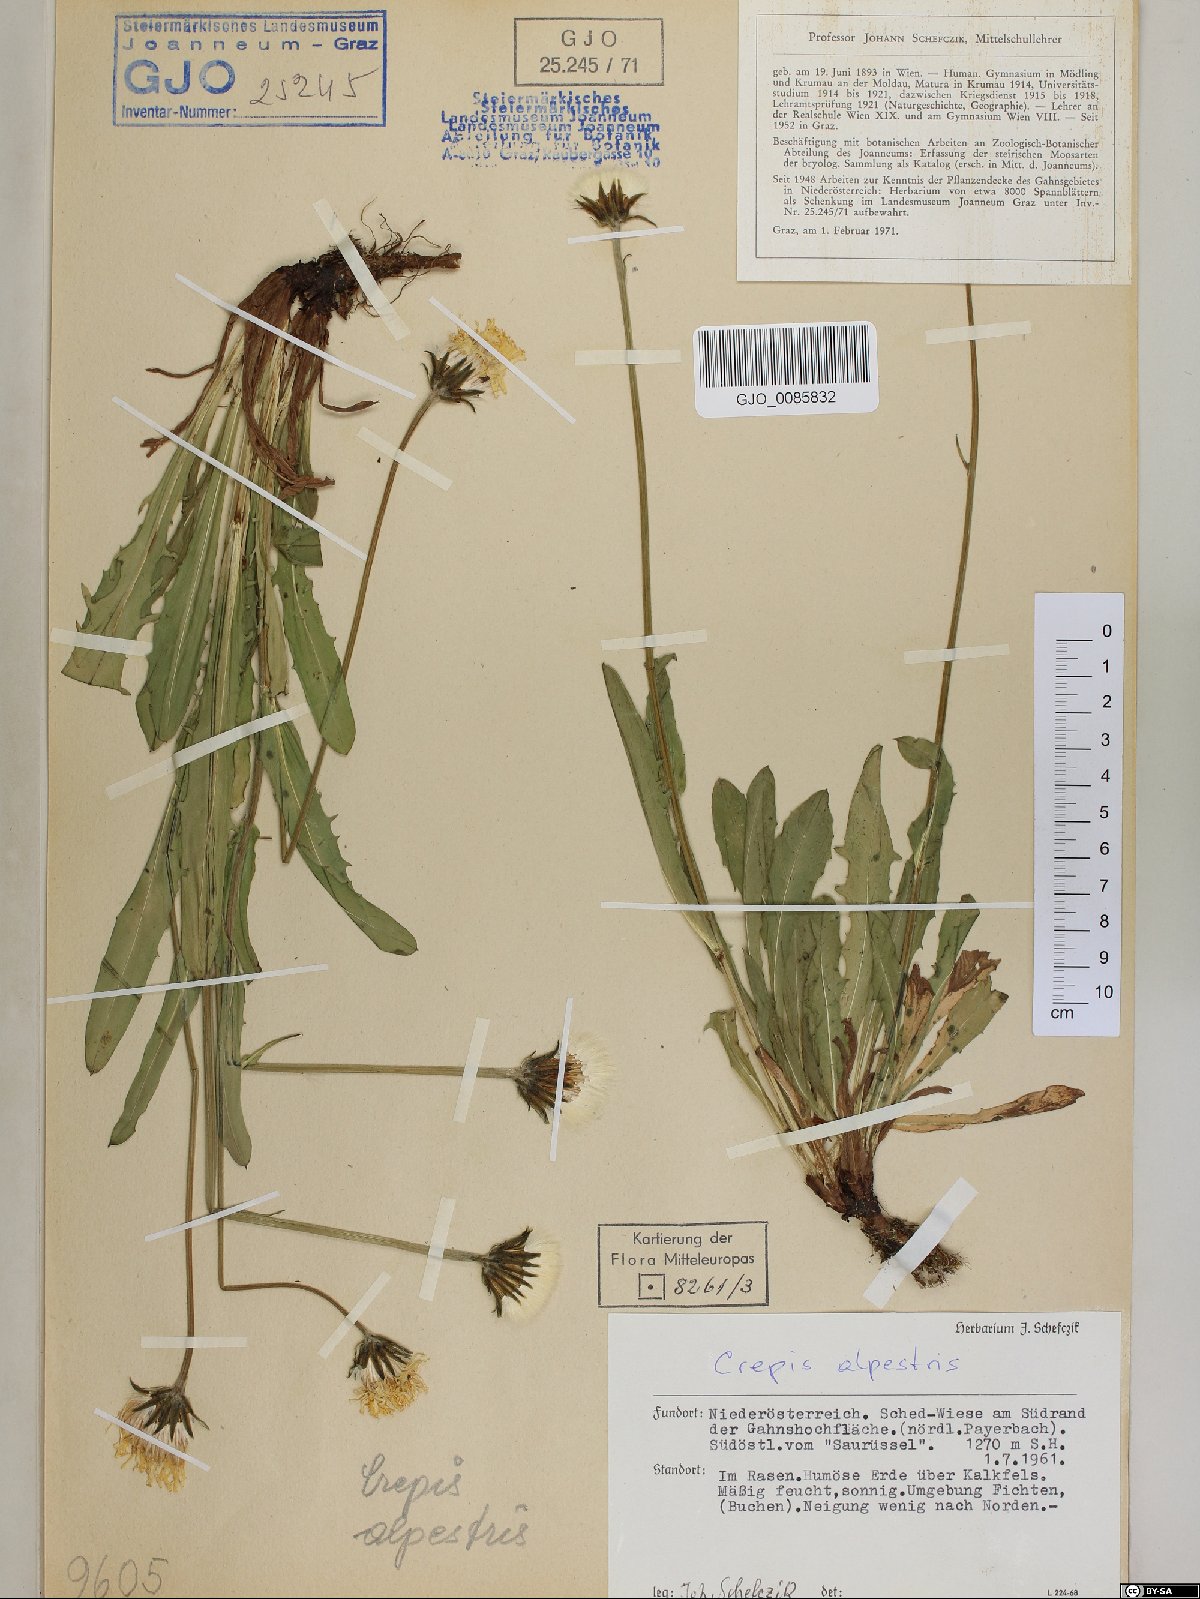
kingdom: Plantae
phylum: Tracheophyta
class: Magnoliopsida
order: Asterales
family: Asteraceae
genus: Crepis
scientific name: Crepis alpestris
